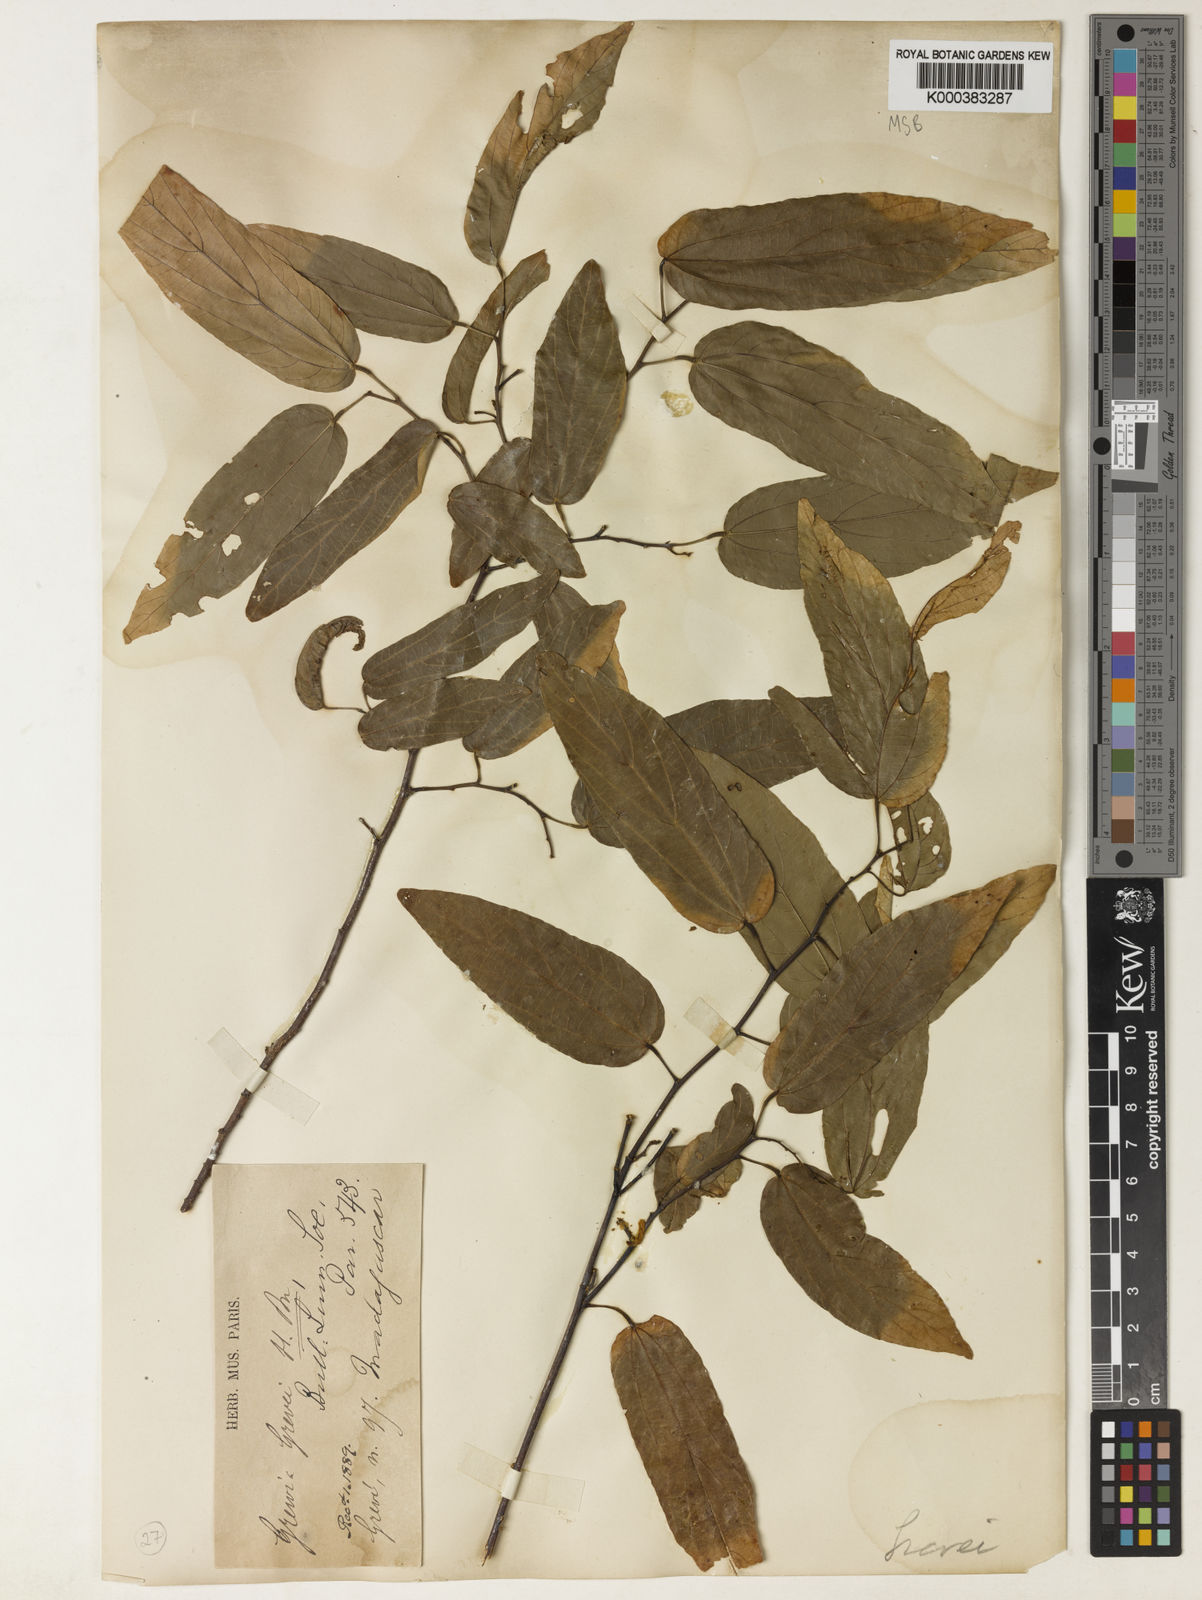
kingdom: Plantae
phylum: Tracheophyta
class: Magnoliopsida
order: Malvales
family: Malvaceae
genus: Grewia
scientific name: Grewia grevei
